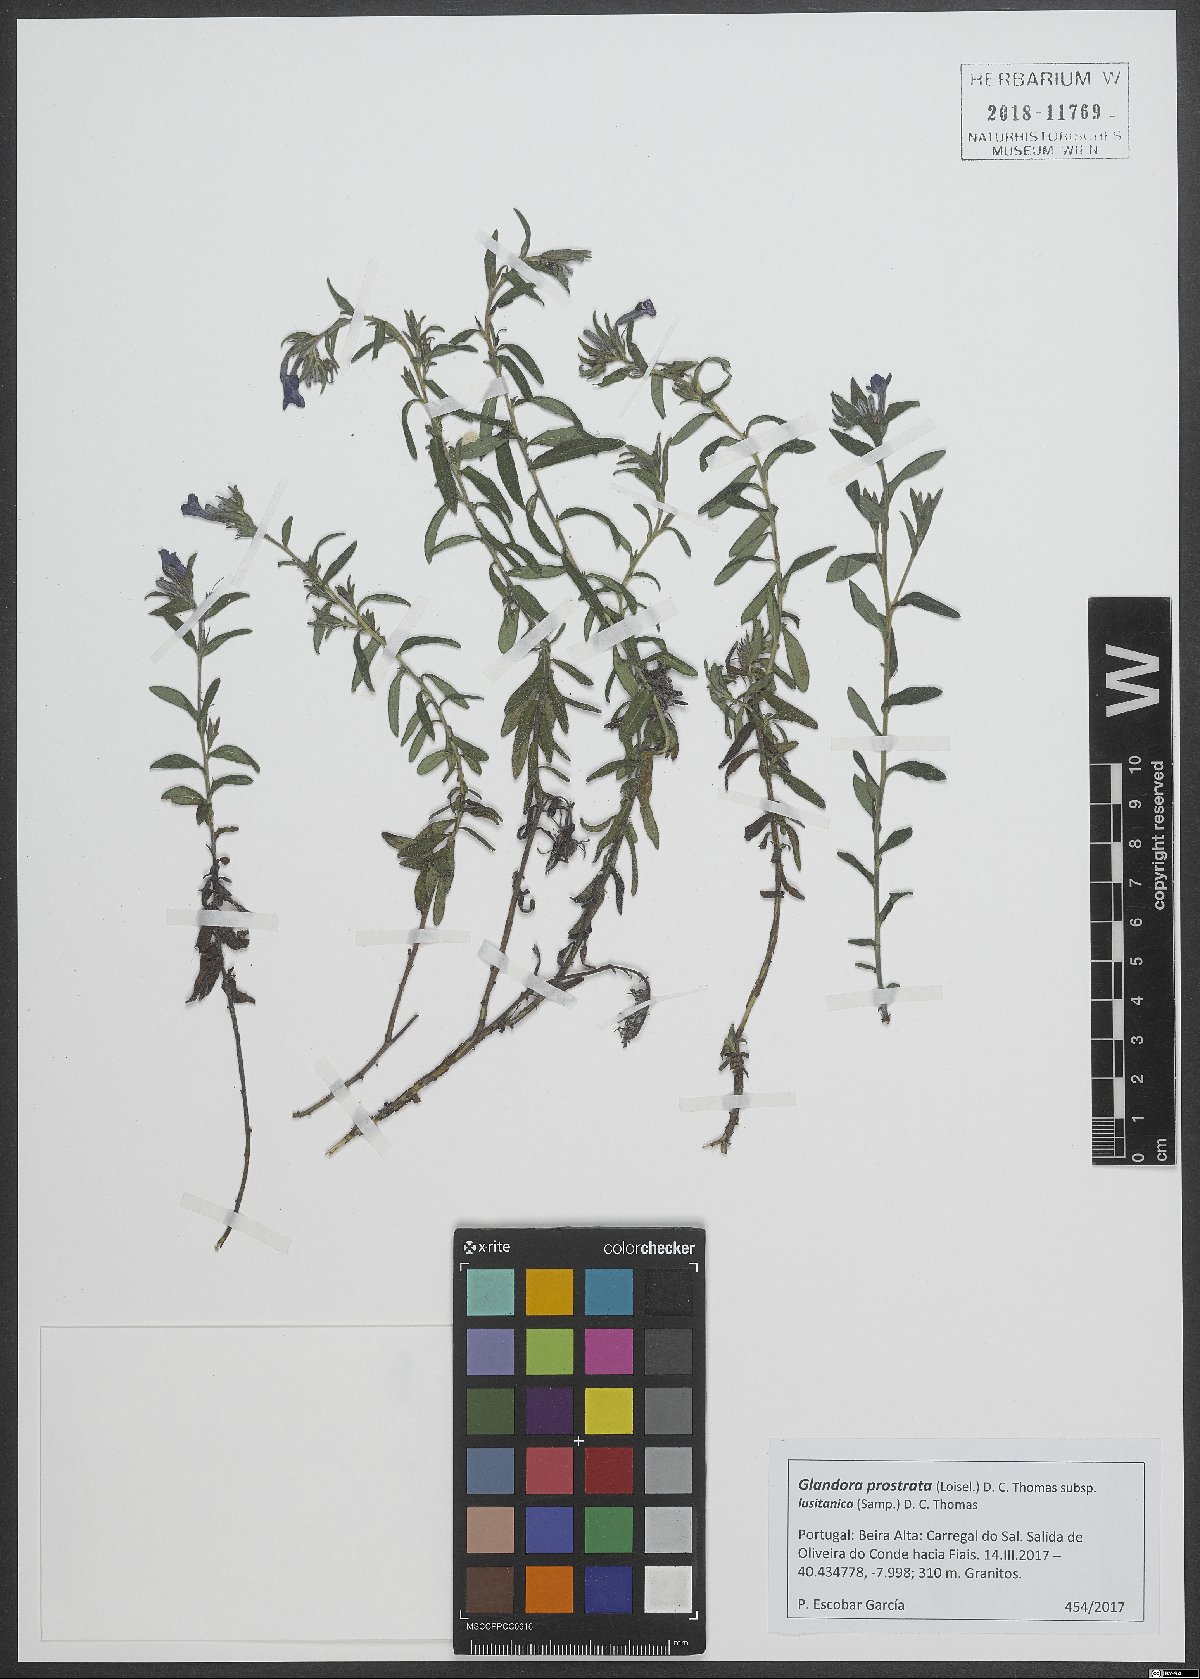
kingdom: Plantae
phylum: Tracheophyta
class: Magnoliopsida
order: Boraginales
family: Boraginaceae
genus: Glandora
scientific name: Glandora prostrata
